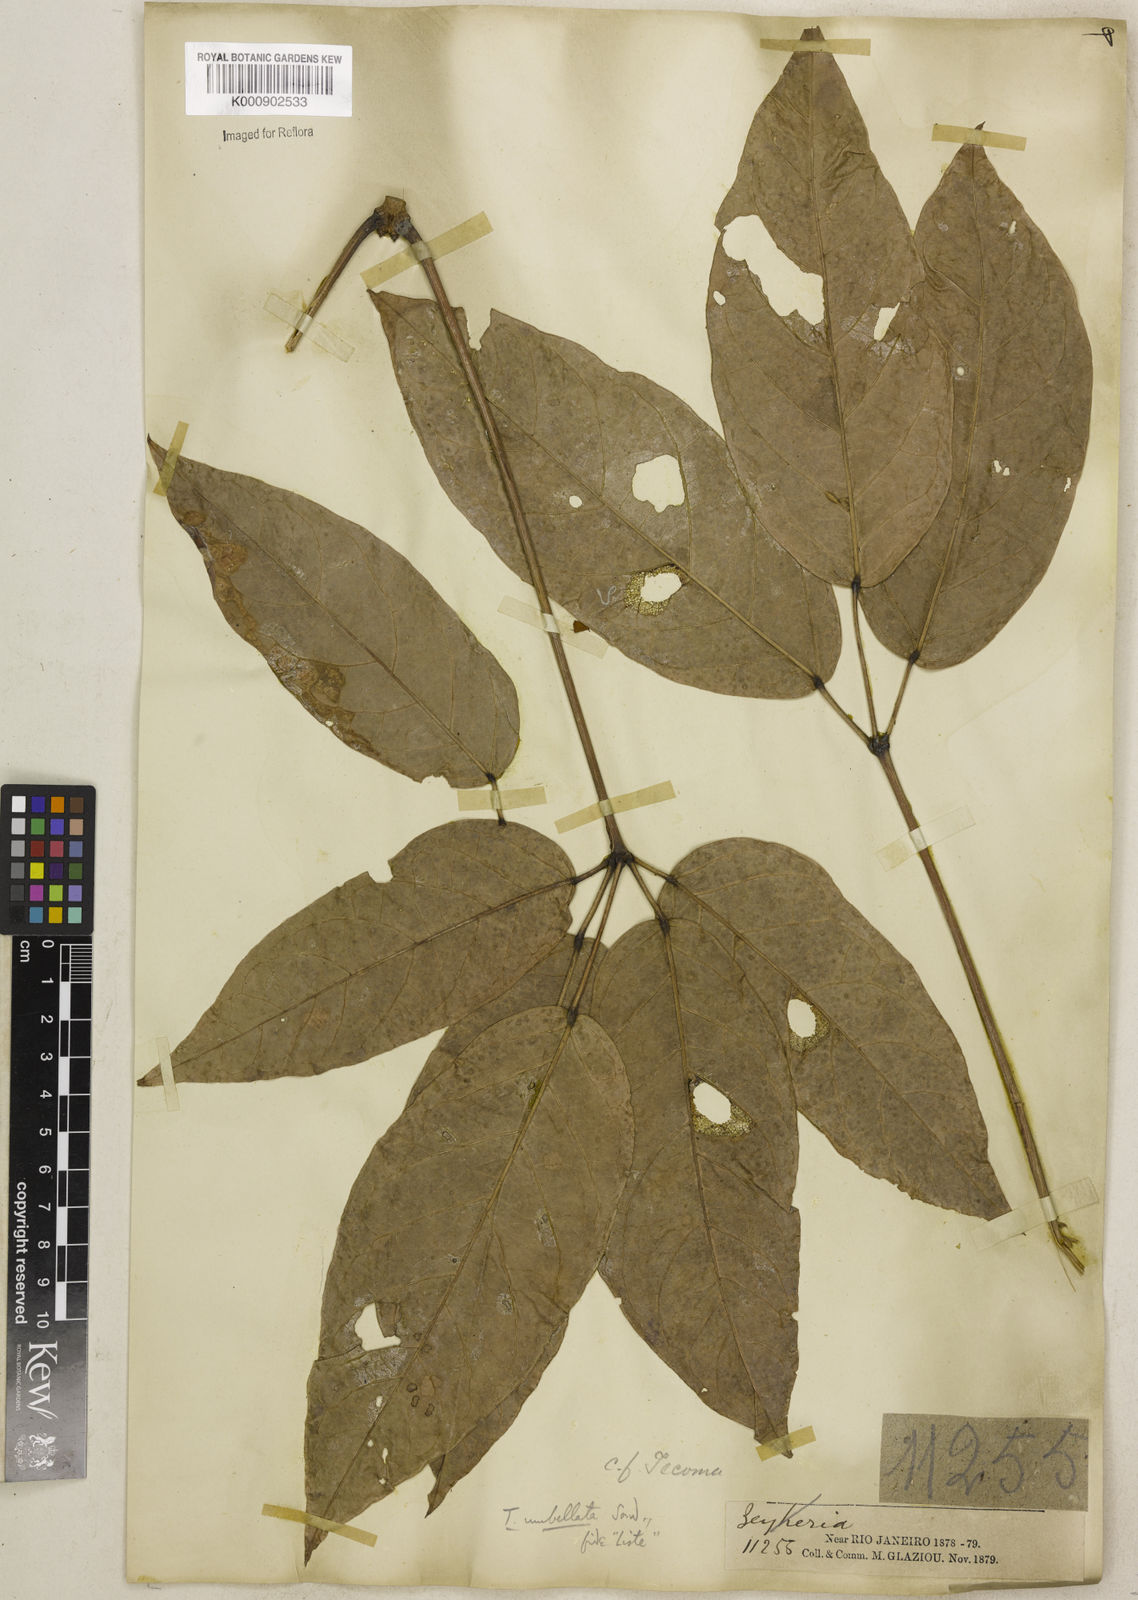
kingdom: Plantae
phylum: Tracheophyta
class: Magnoliopsida
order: Lamiales
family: Bignoniaceae
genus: Handroanthus
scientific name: Handroanthus umbellatus
